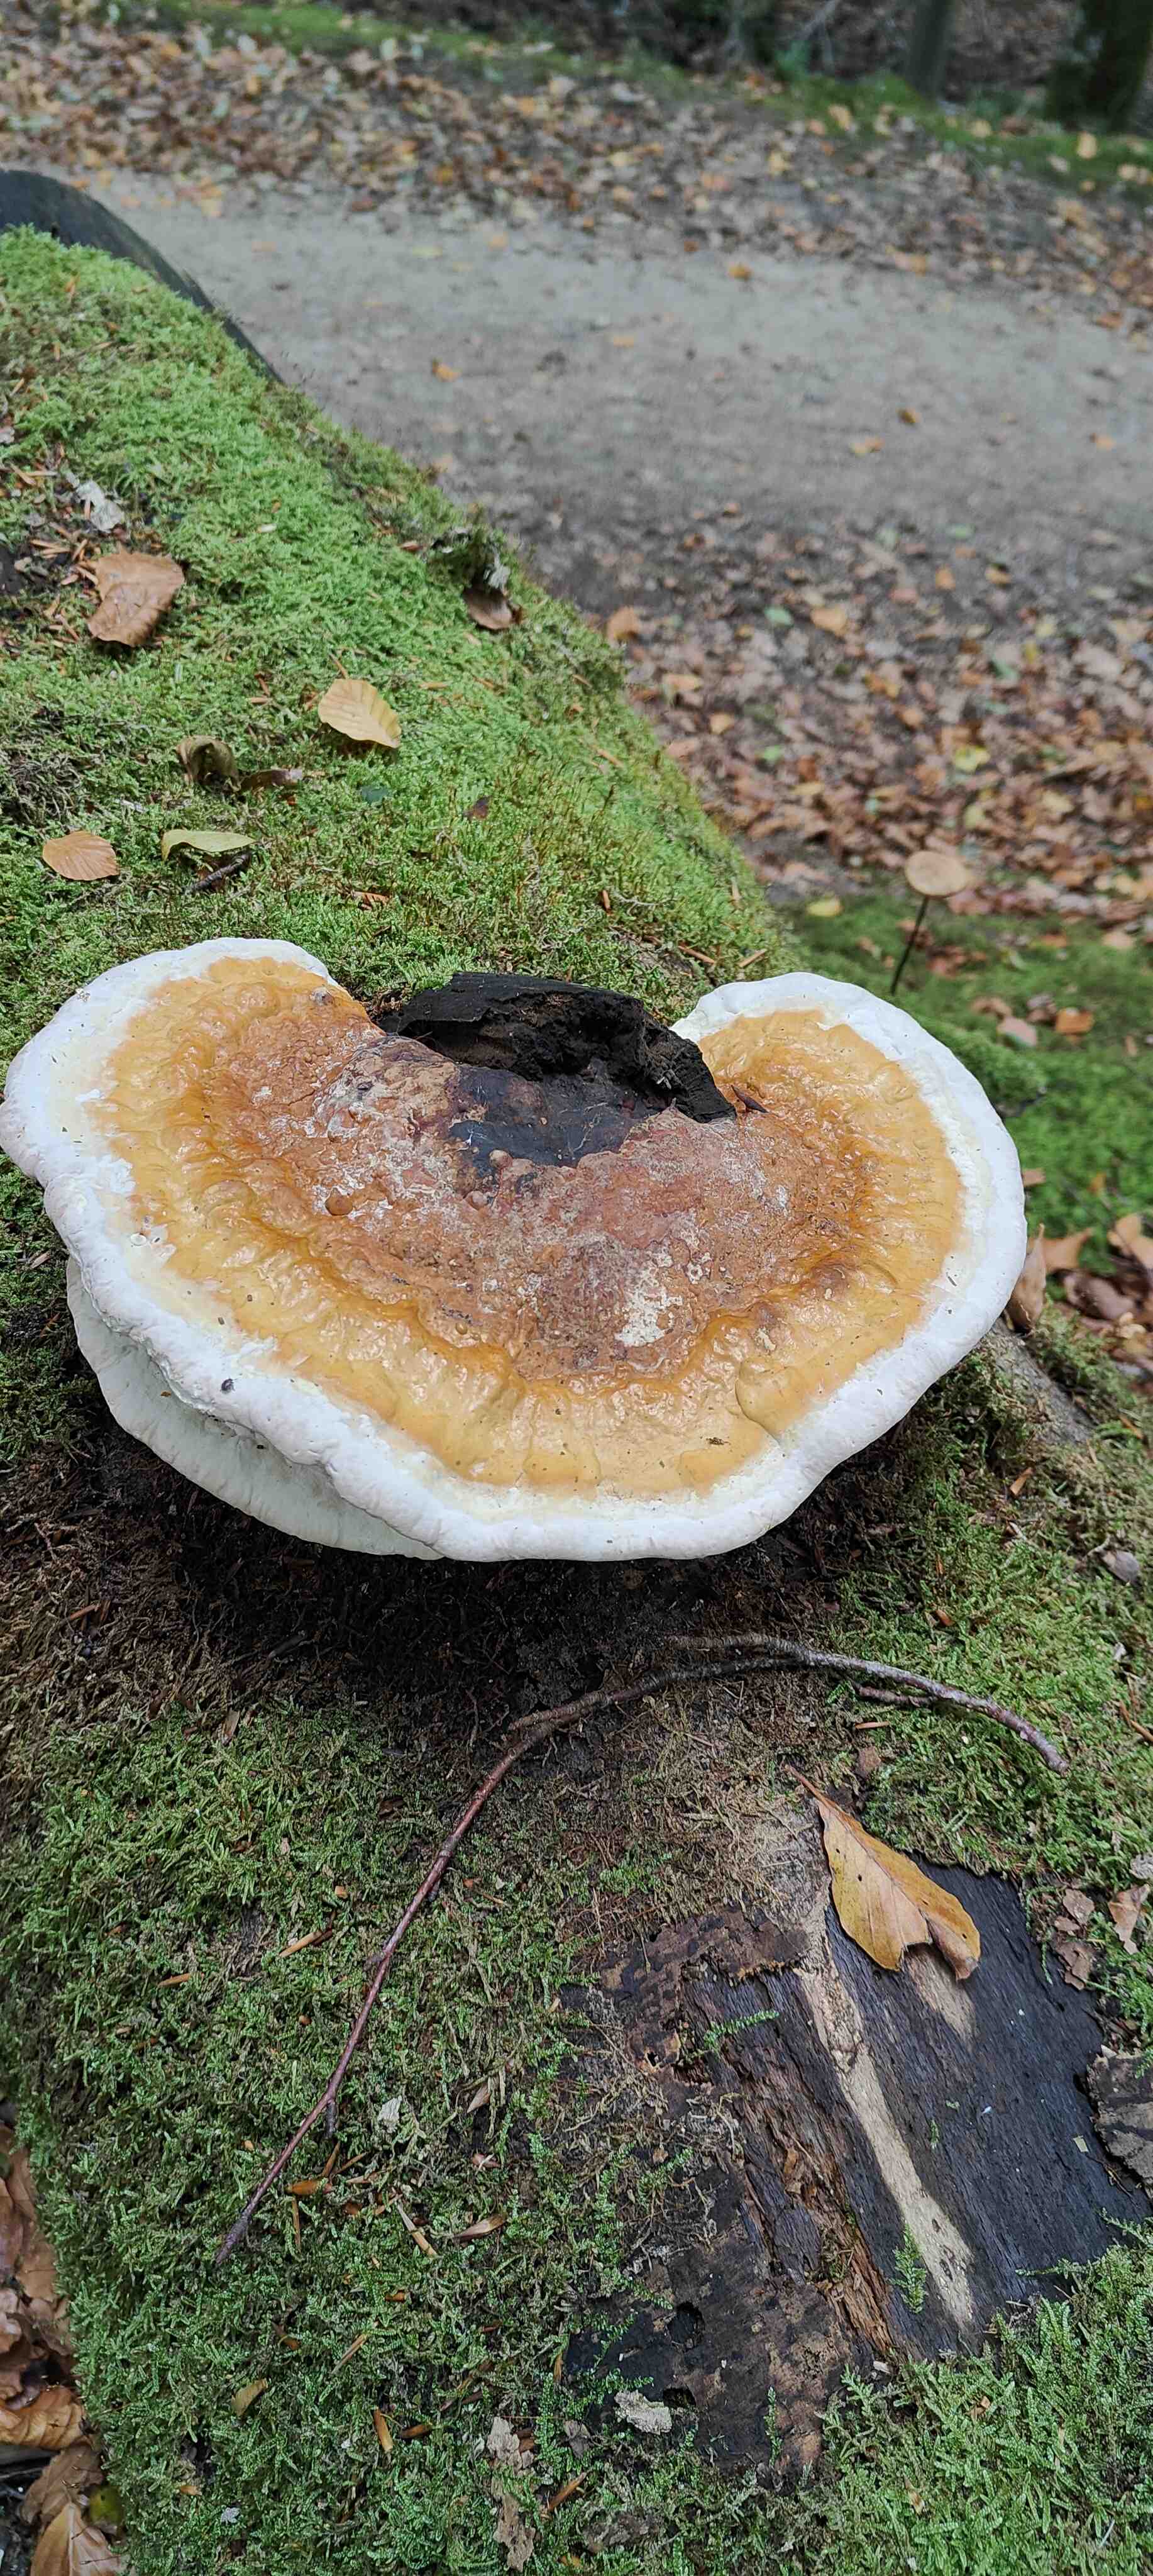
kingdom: Fungi
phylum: Basidiomycota
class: Agaricomycetes
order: Polyporales
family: Fomitopsidaceae
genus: Fomitopsis
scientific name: Fomitopsis pinicola
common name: randbæltet hovporesvamp
